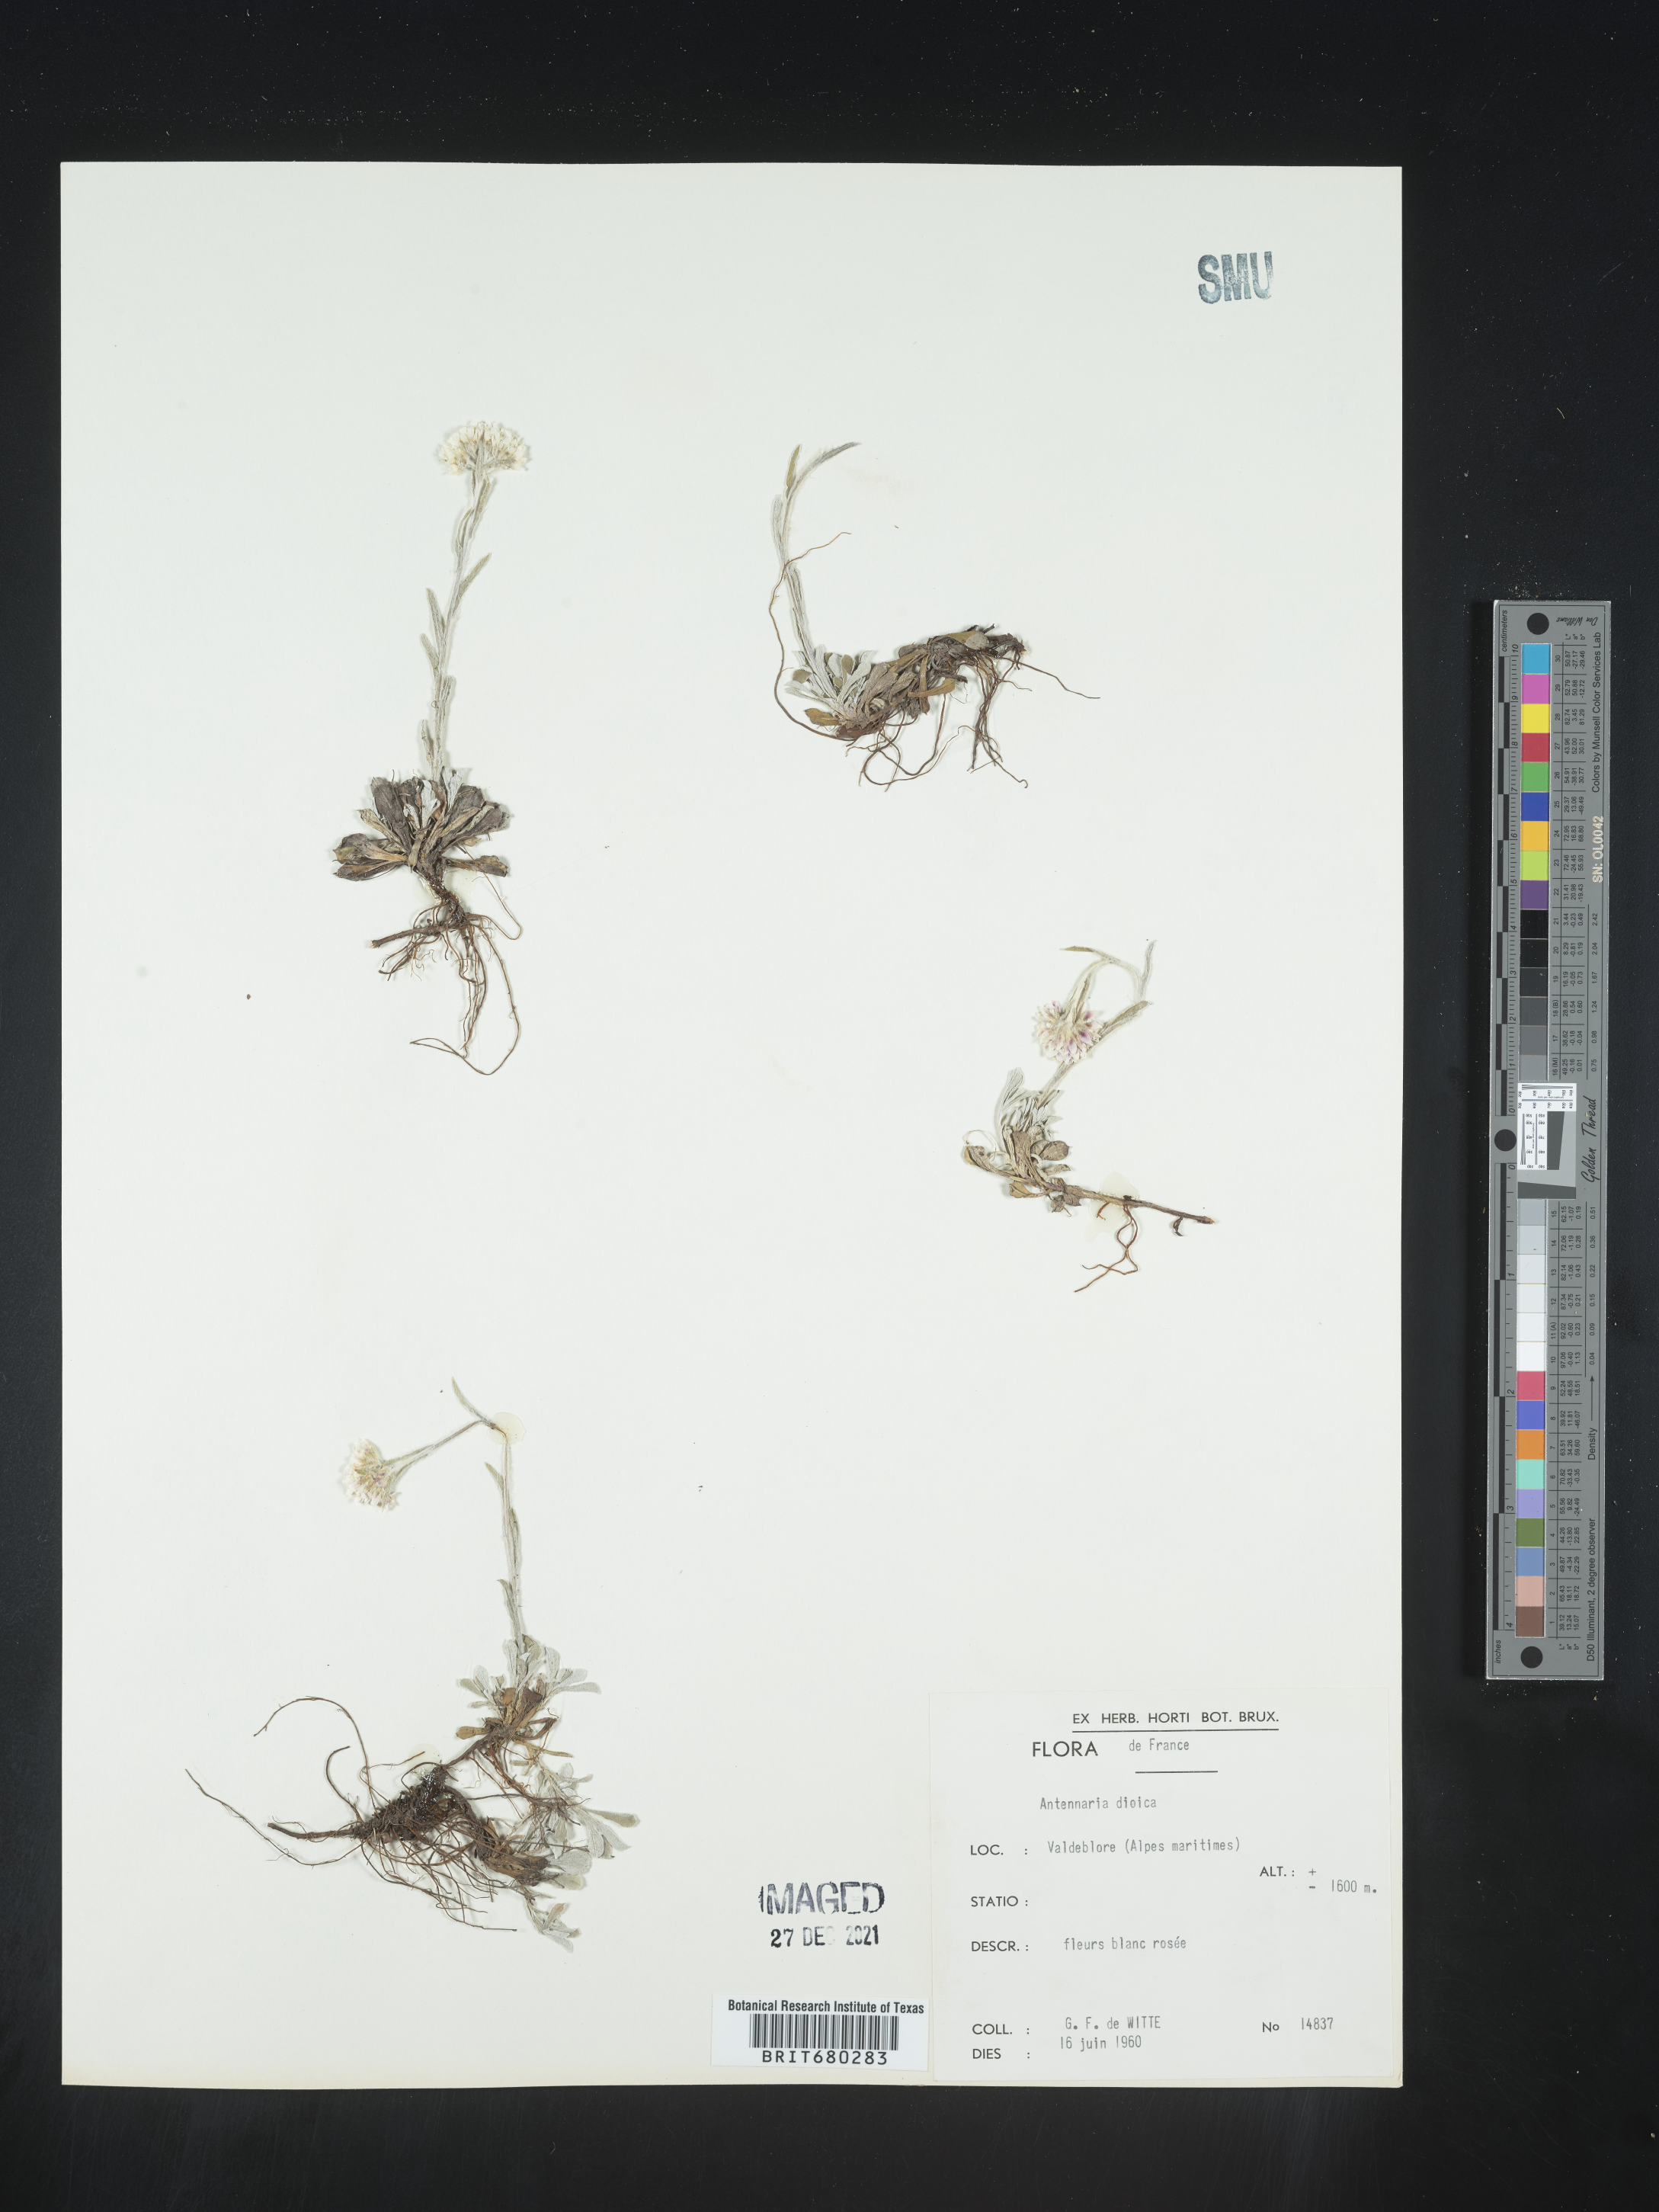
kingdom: Plantae
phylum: Tracheophyta
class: Magnoliopsida
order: Asterales
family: Asteraceae
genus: Antennaria
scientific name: Antennaria dioica
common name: Mountain everlasting
